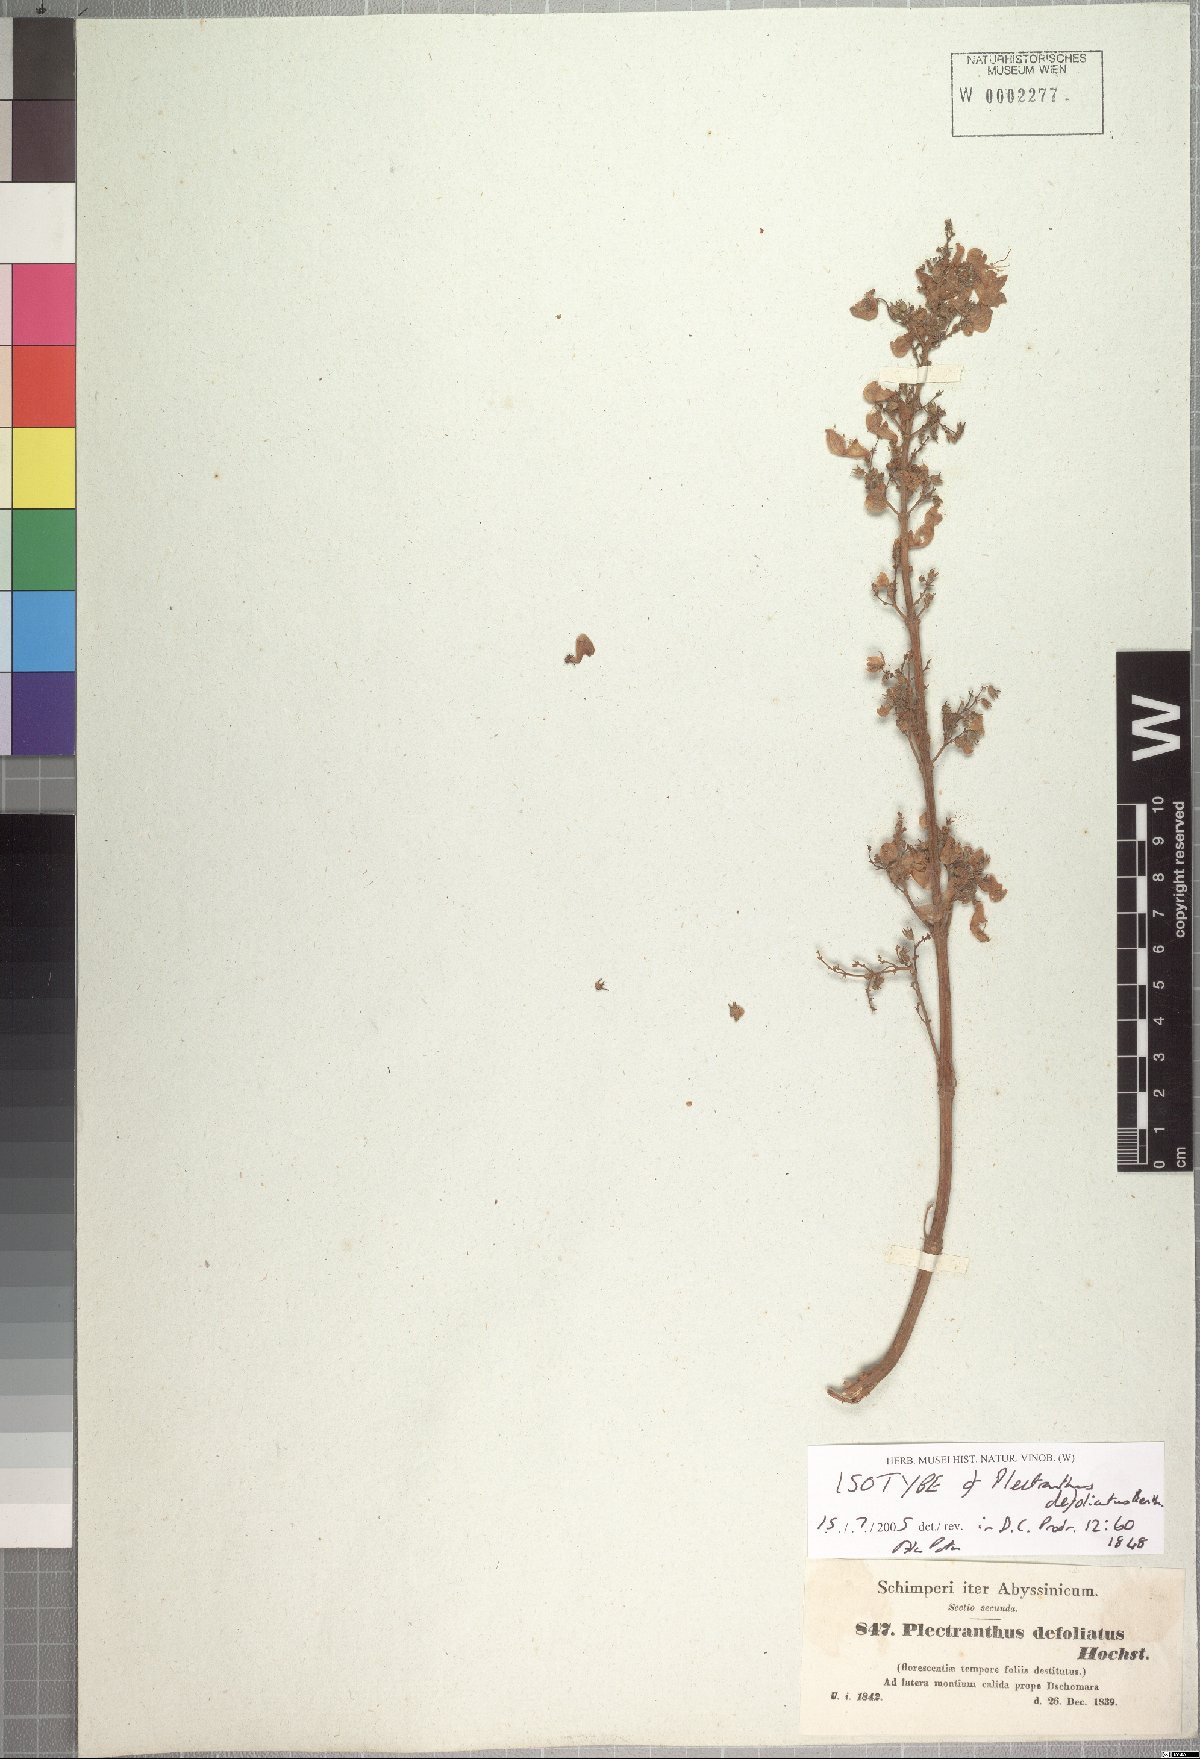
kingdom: Plantae
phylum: Tracheophyta
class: Magnoliopsida
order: Lamiales
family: Lamiaceae
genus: Coleus
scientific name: Coleus defoliatus
